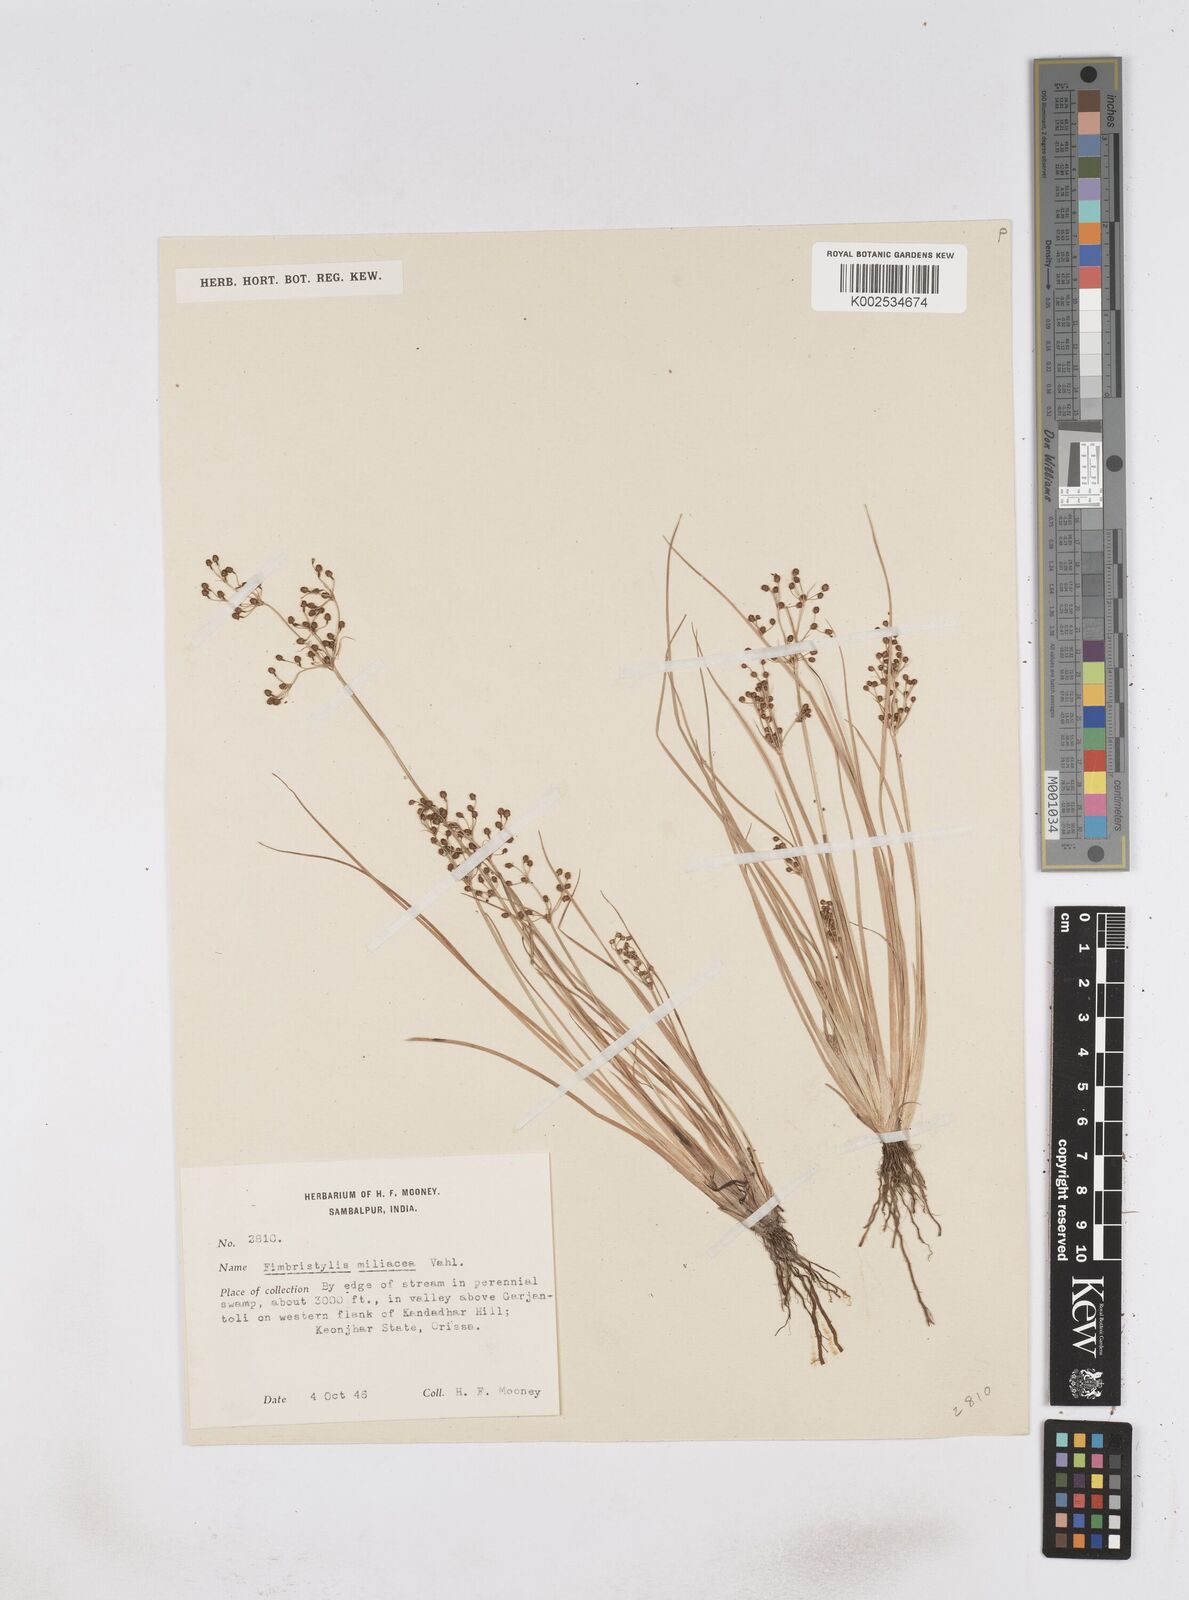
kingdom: Plantae
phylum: Tracheophyta
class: Liliopsida
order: Poales
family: Cyperaceae
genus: Fimbristylis
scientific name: Fimbristylis littoralis
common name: Fimbry
